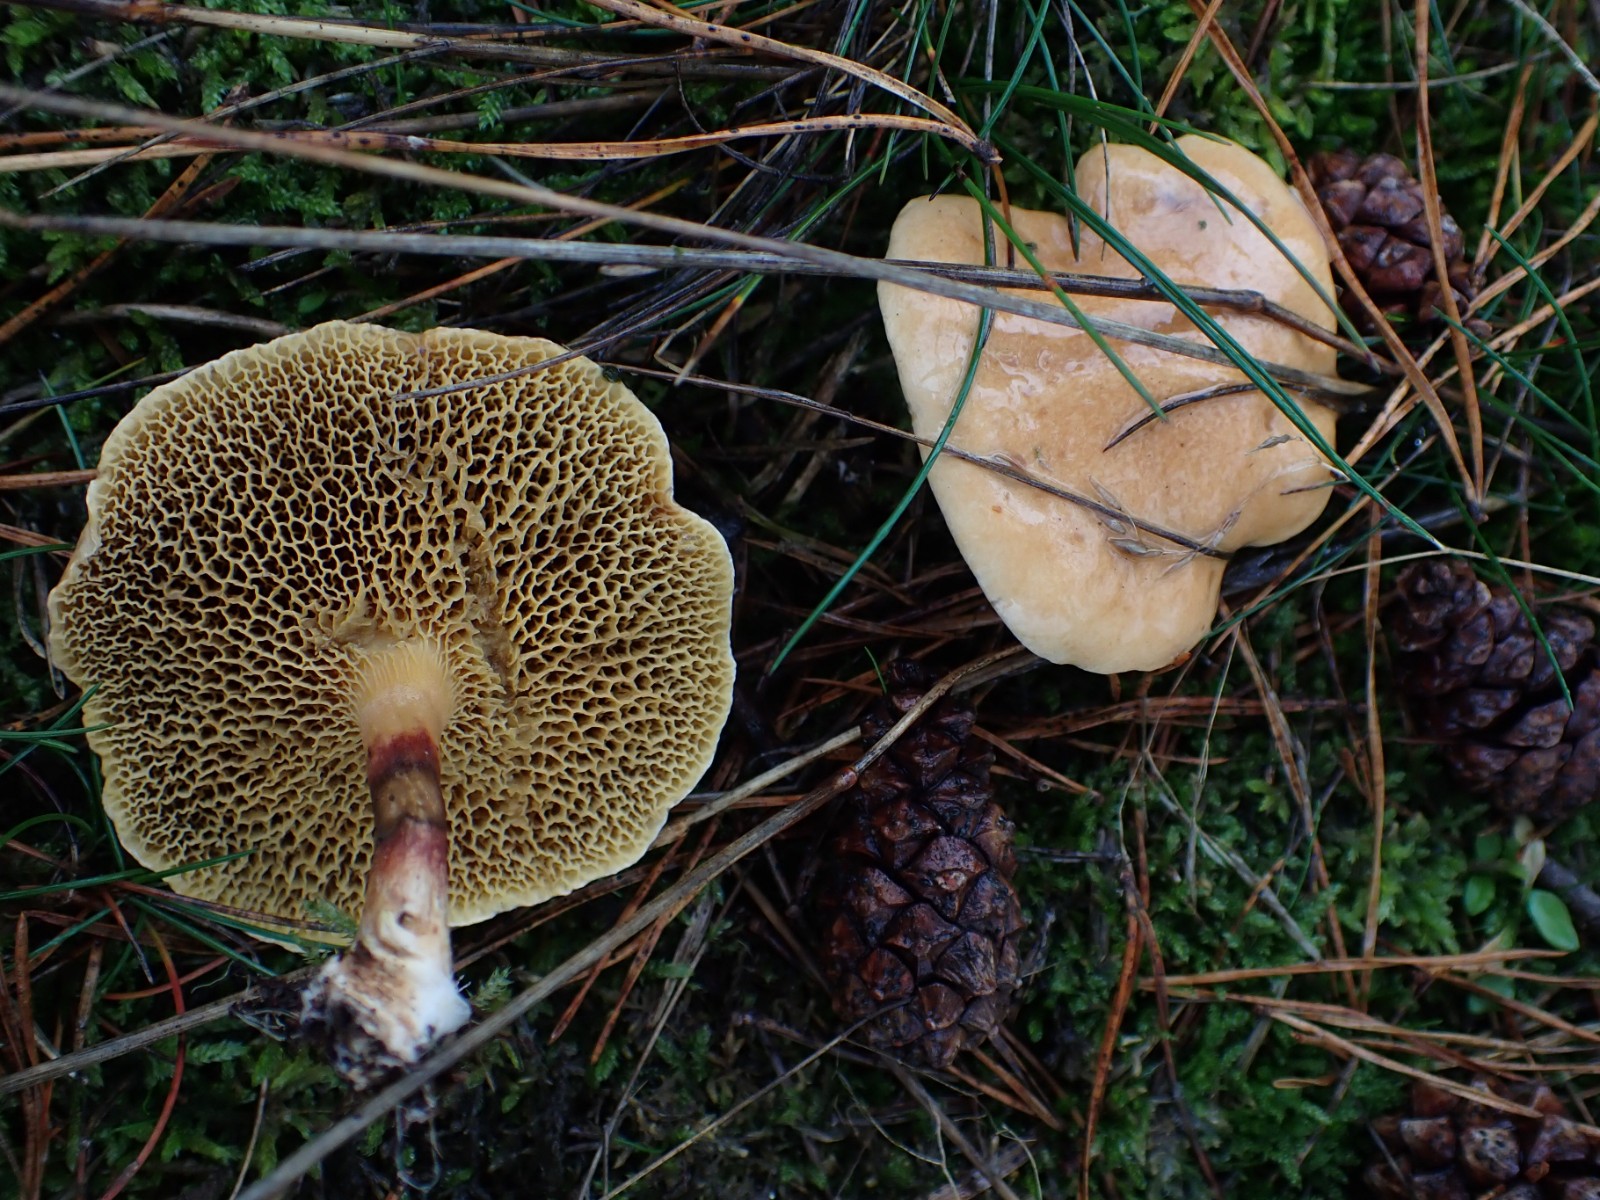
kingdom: Fungi
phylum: Basidiomycota
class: Agaricomycetes
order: Boletales
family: Suillaceae
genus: Suillus
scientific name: Suillus bovinus
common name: grovporet slimrørhat
